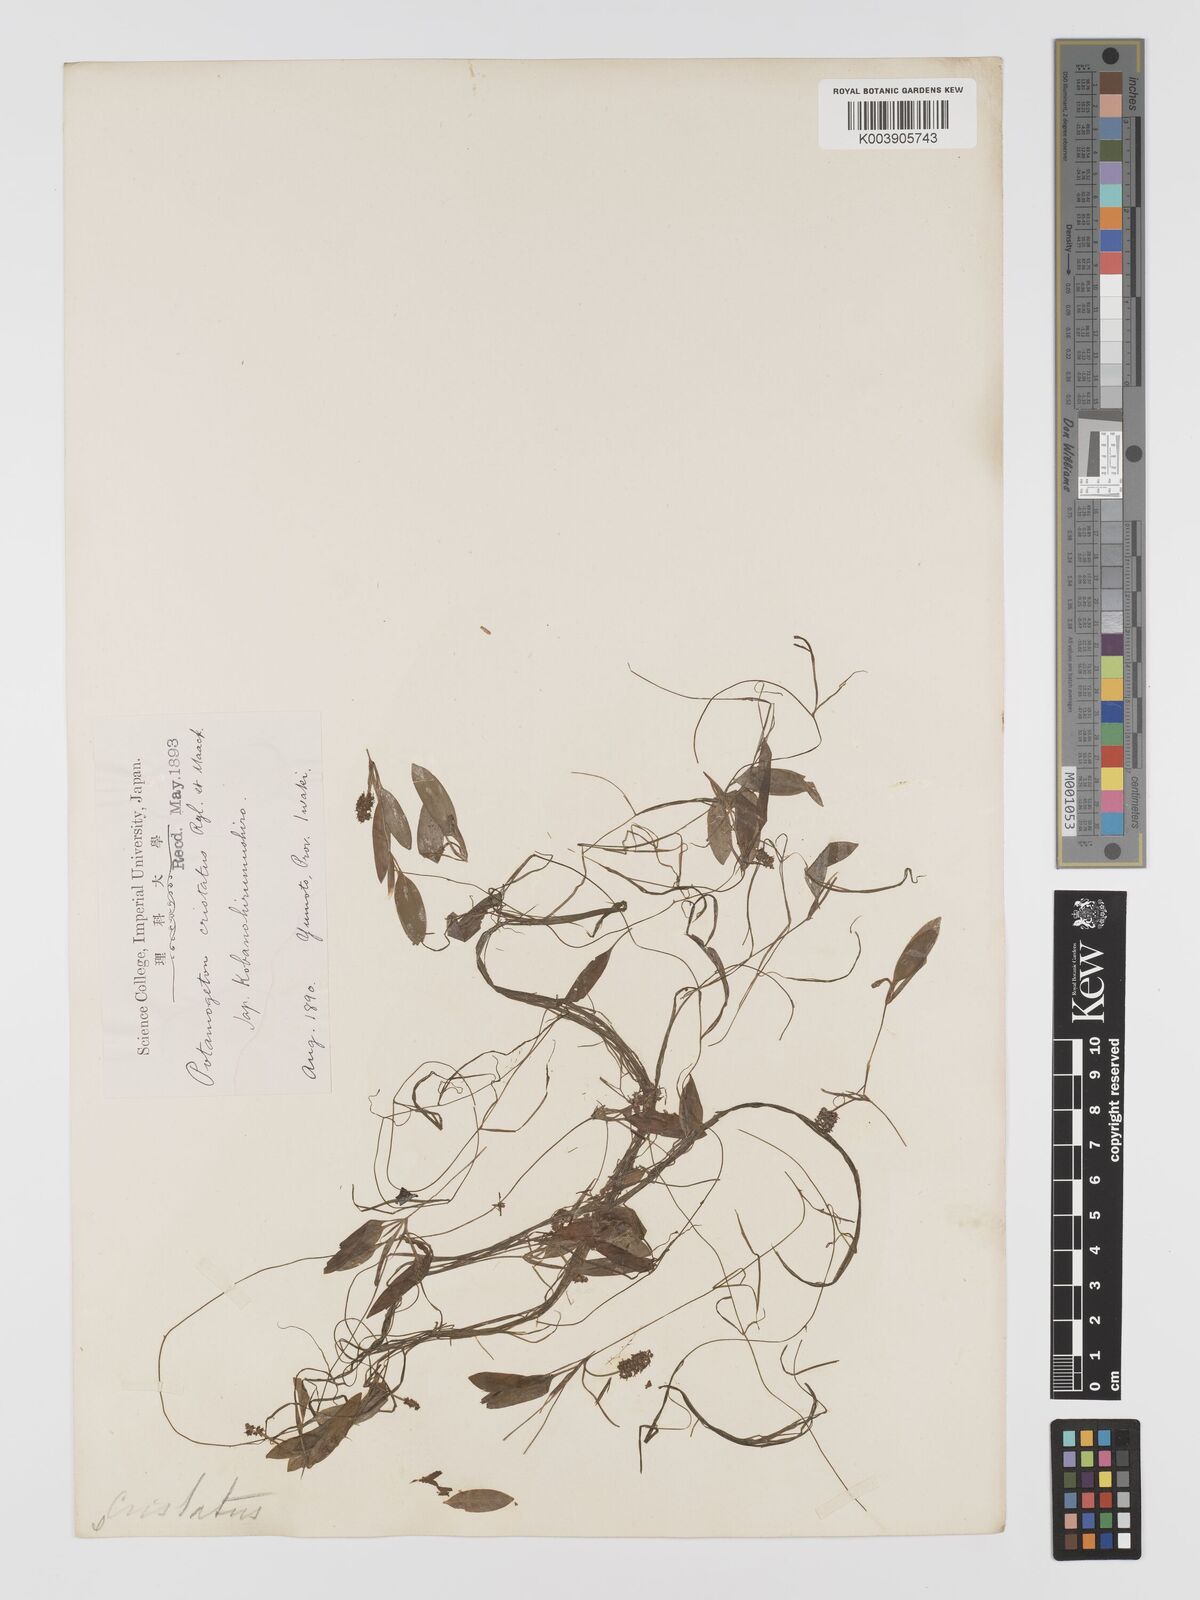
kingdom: Plantae
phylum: Tracheophyta
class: Liliopsida
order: Alismatales
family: Potamogetonaceae
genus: Potamogeton
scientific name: Potamogeton cristatus
